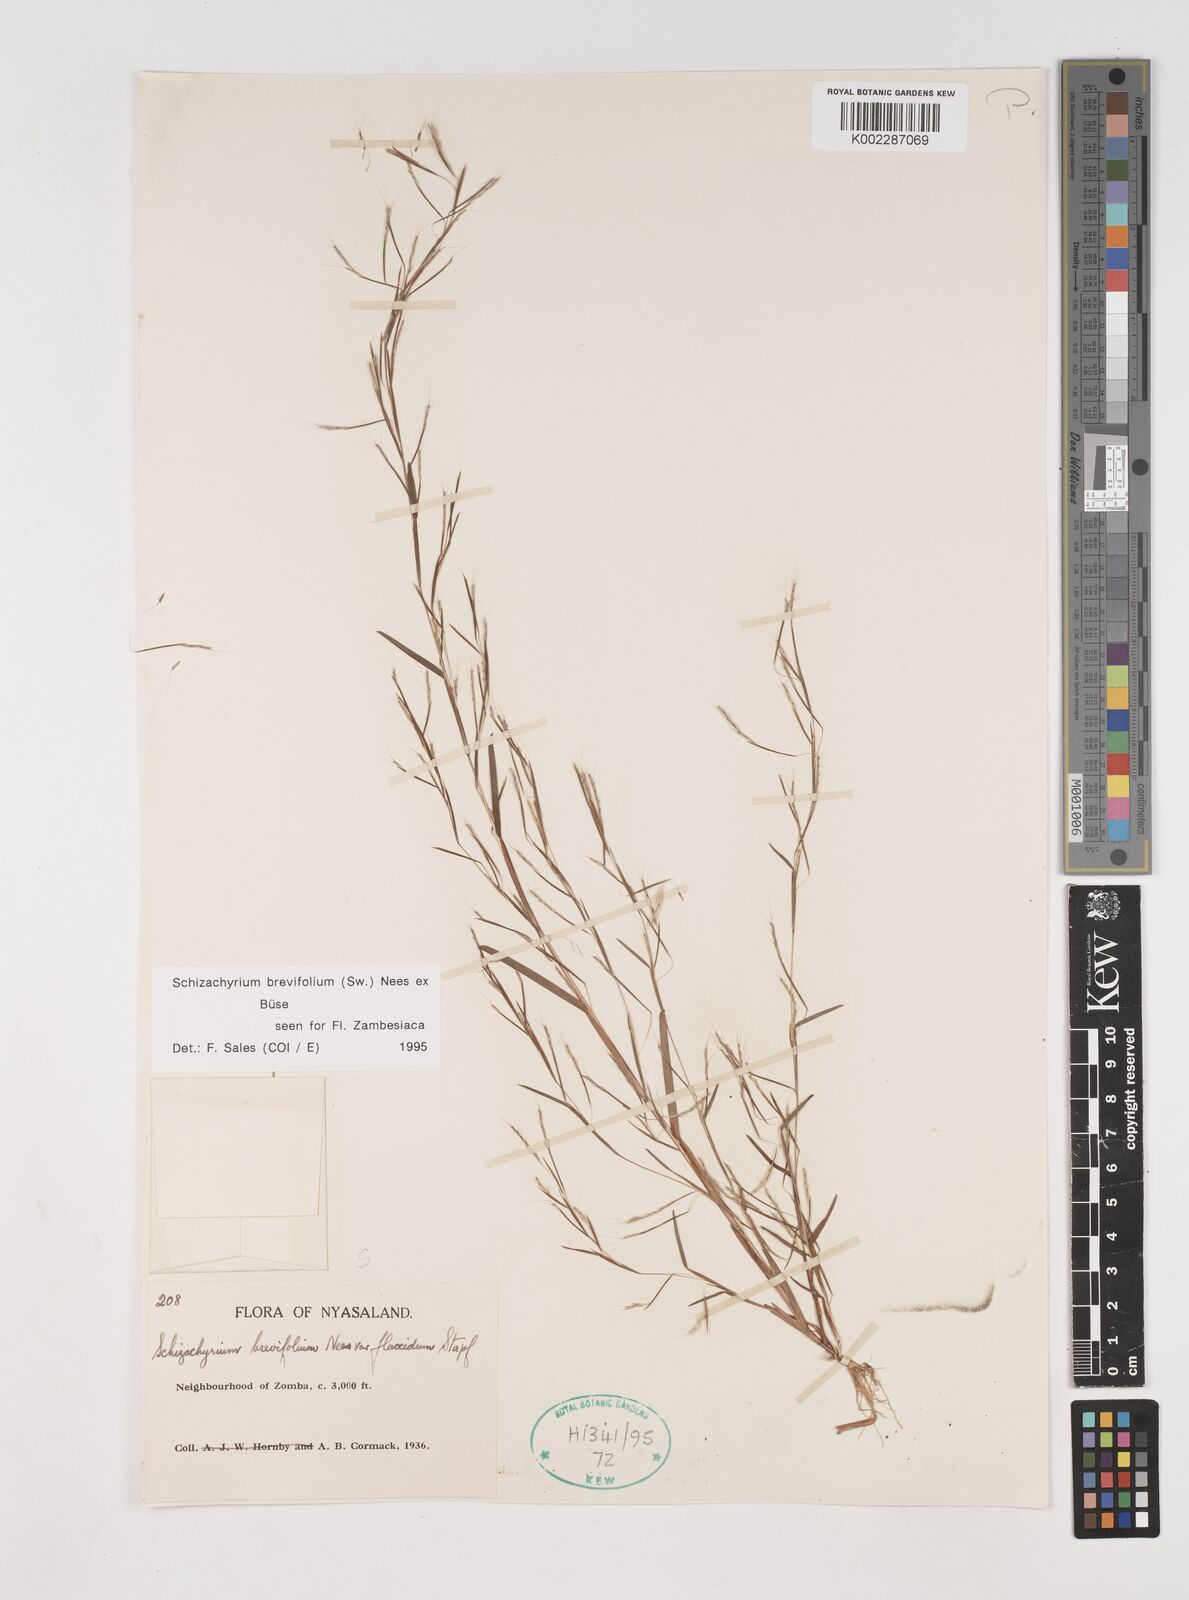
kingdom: Plantae
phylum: Tracheophyta
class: Liliopsida
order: Poales
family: Poaceae
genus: Schizachyrium
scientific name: Schizachyrium brevifolium
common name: Serillo dulce
